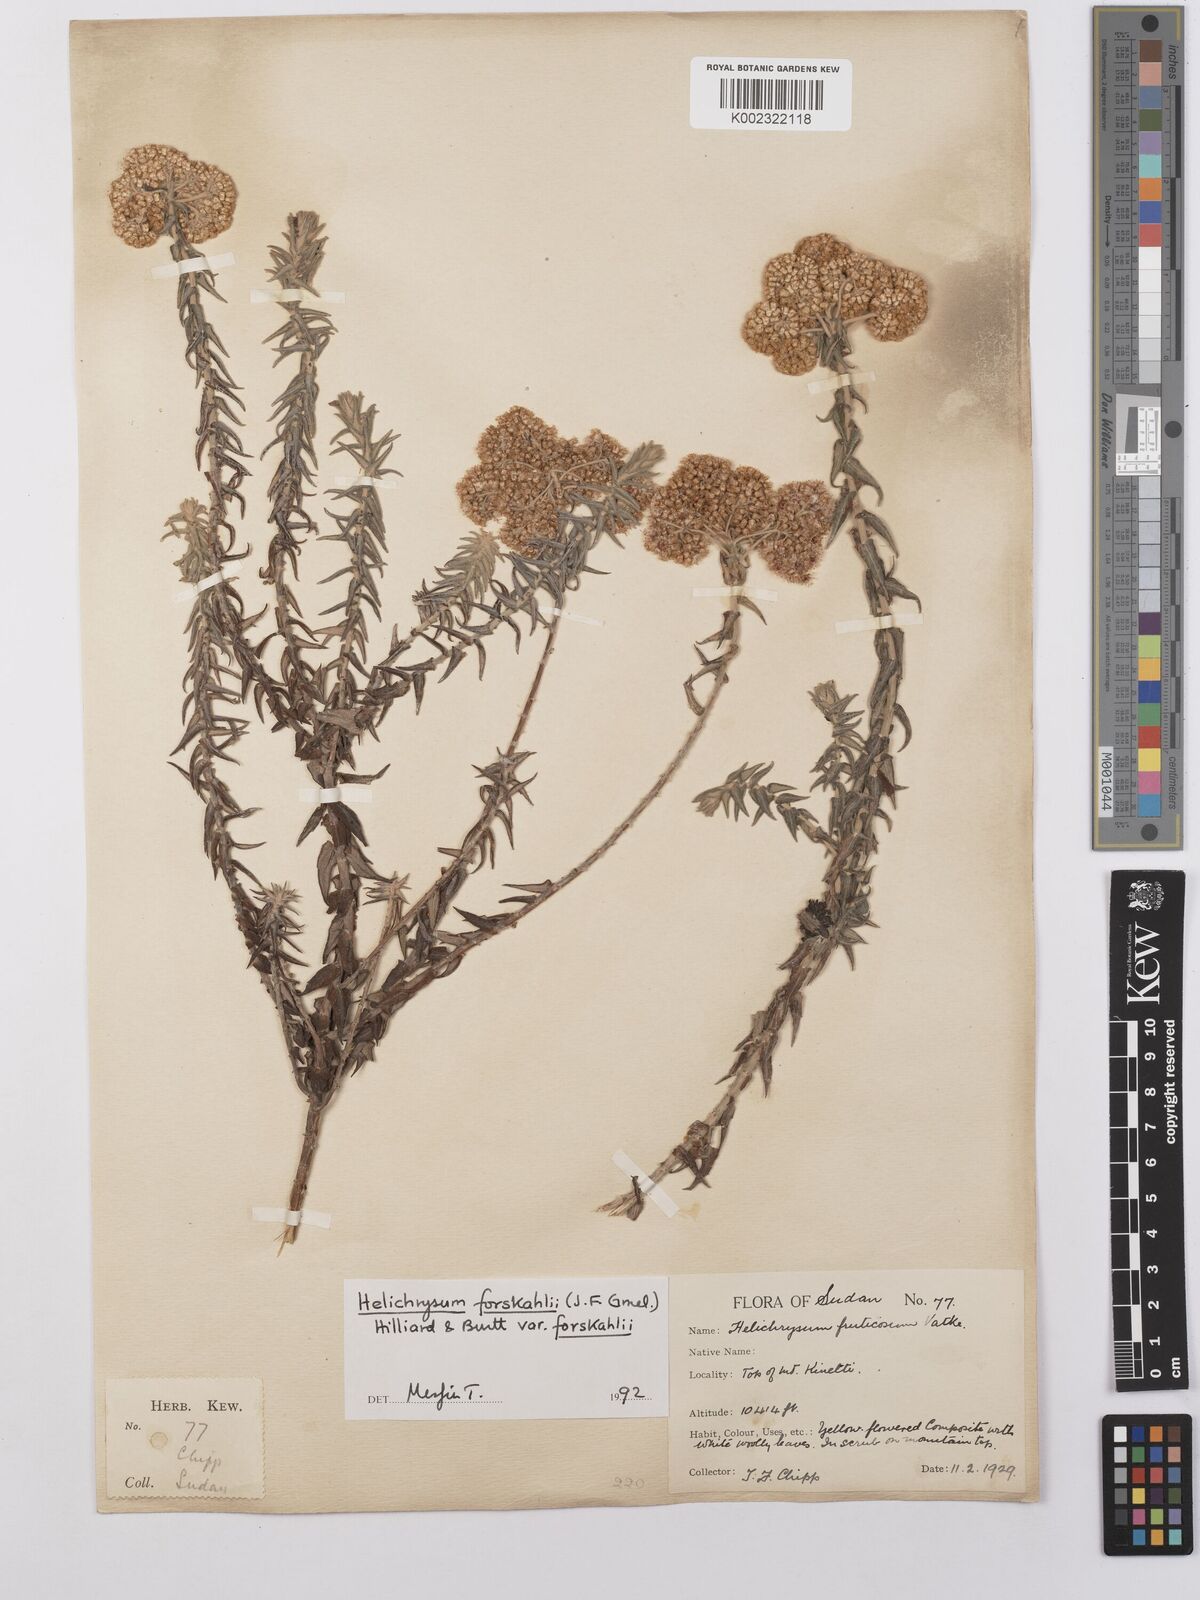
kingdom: Plantae
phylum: Tracheophyta
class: Magnoliopsida
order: Asterales
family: Asteraceae
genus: Helichrysum
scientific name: Helichrysum forskahlii
